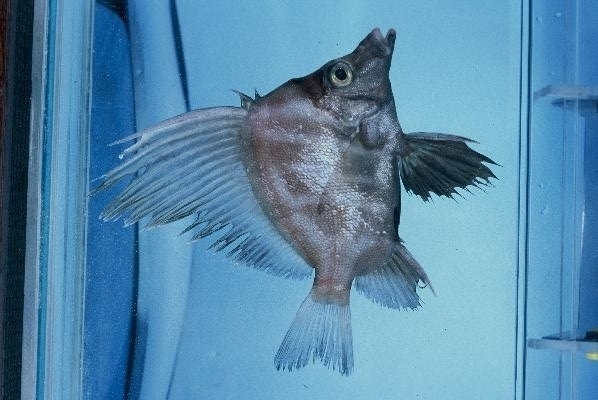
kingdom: Animalia
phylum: Chordata
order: Perciformes
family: Pentacerotidae
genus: Histiopterus
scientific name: Histiopterus typus
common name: Sailfin armourhead
